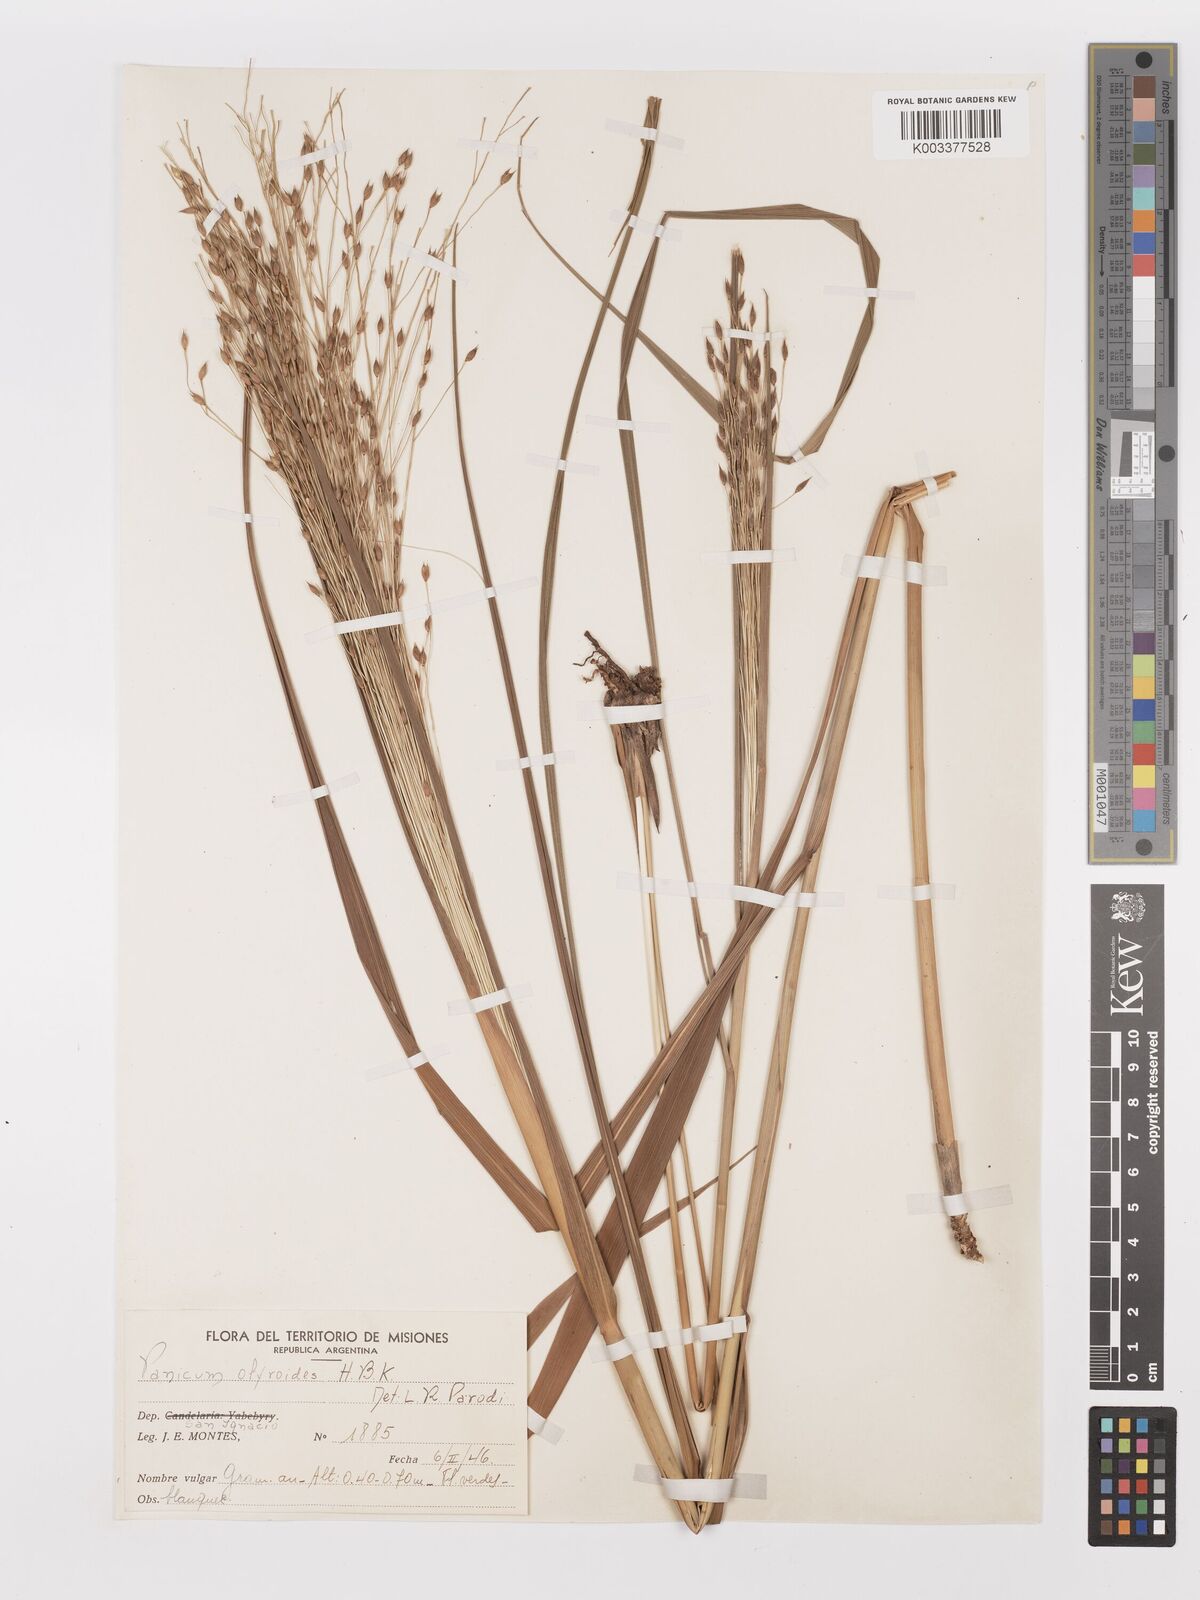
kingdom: Plantae
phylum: Tracheophyta
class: Liliopsida
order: Poales
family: Poaceae
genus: Panicum
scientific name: Panicum olyroides
